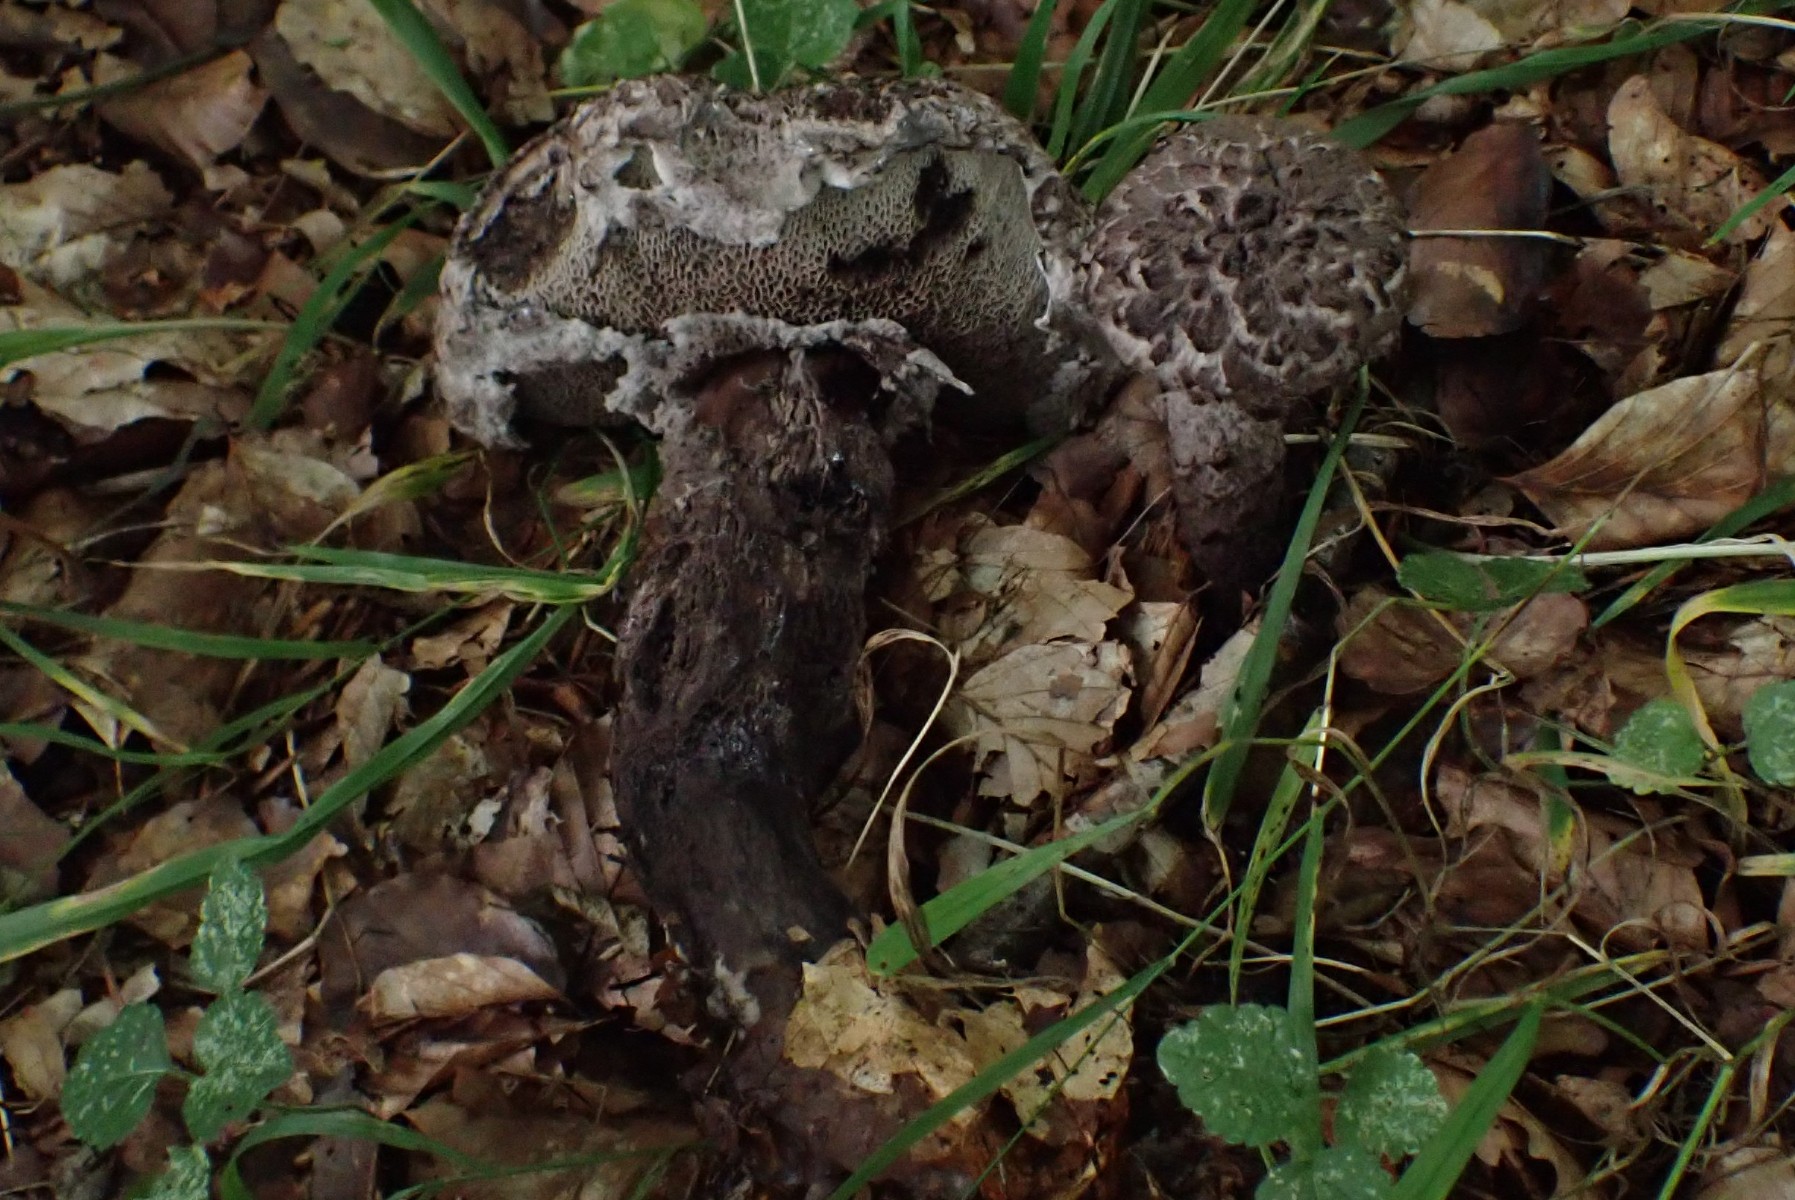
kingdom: Fungi
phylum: Basidiomycota
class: Agaricomycetes
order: Boletales
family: Boletaceae
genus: Strobilomyces
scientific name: Strobilomyces strobilaceus
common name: koglerørhat
